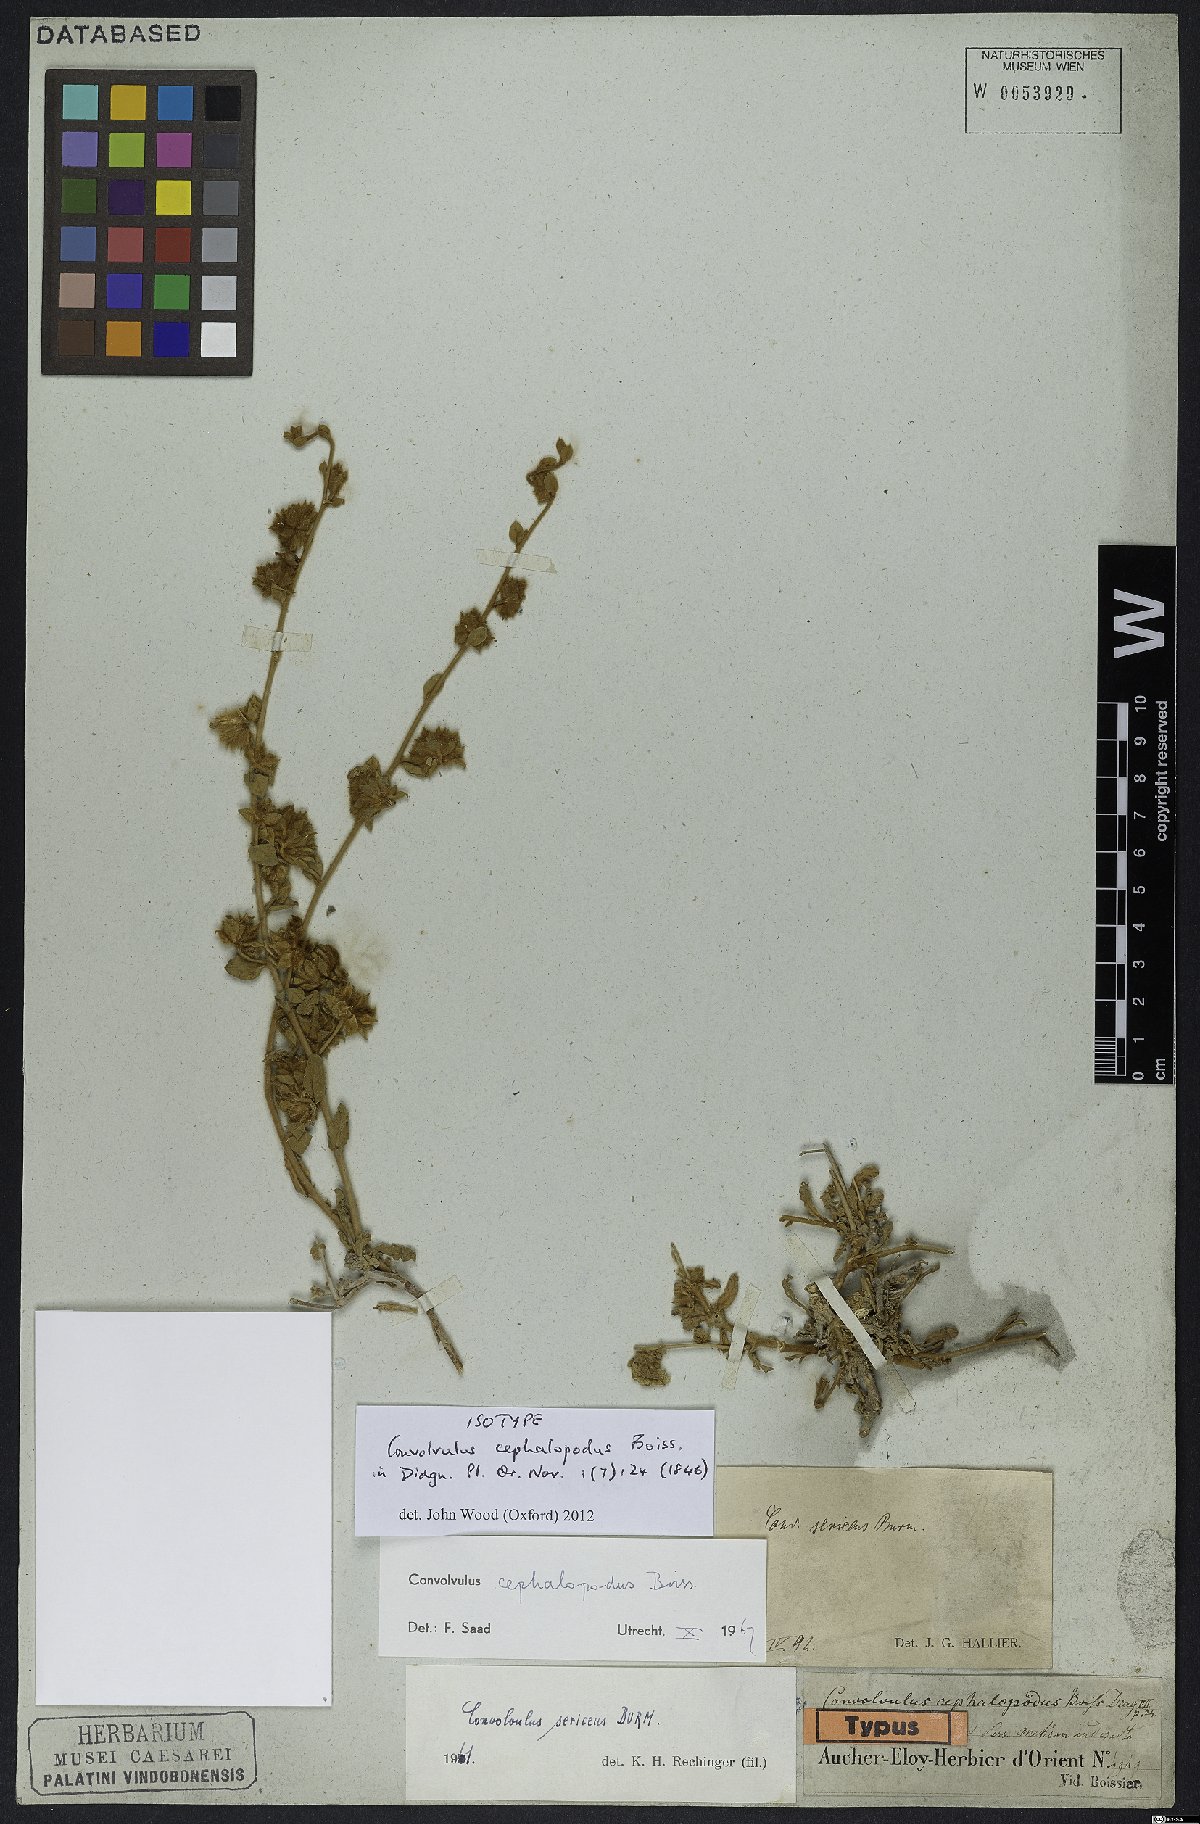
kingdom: Plantae
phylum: Tracheophyta
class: Magnoliopsida
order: Solanales
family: Convolvulaceae
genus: Convolvulus
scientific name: Convolvulus cephalopodus
